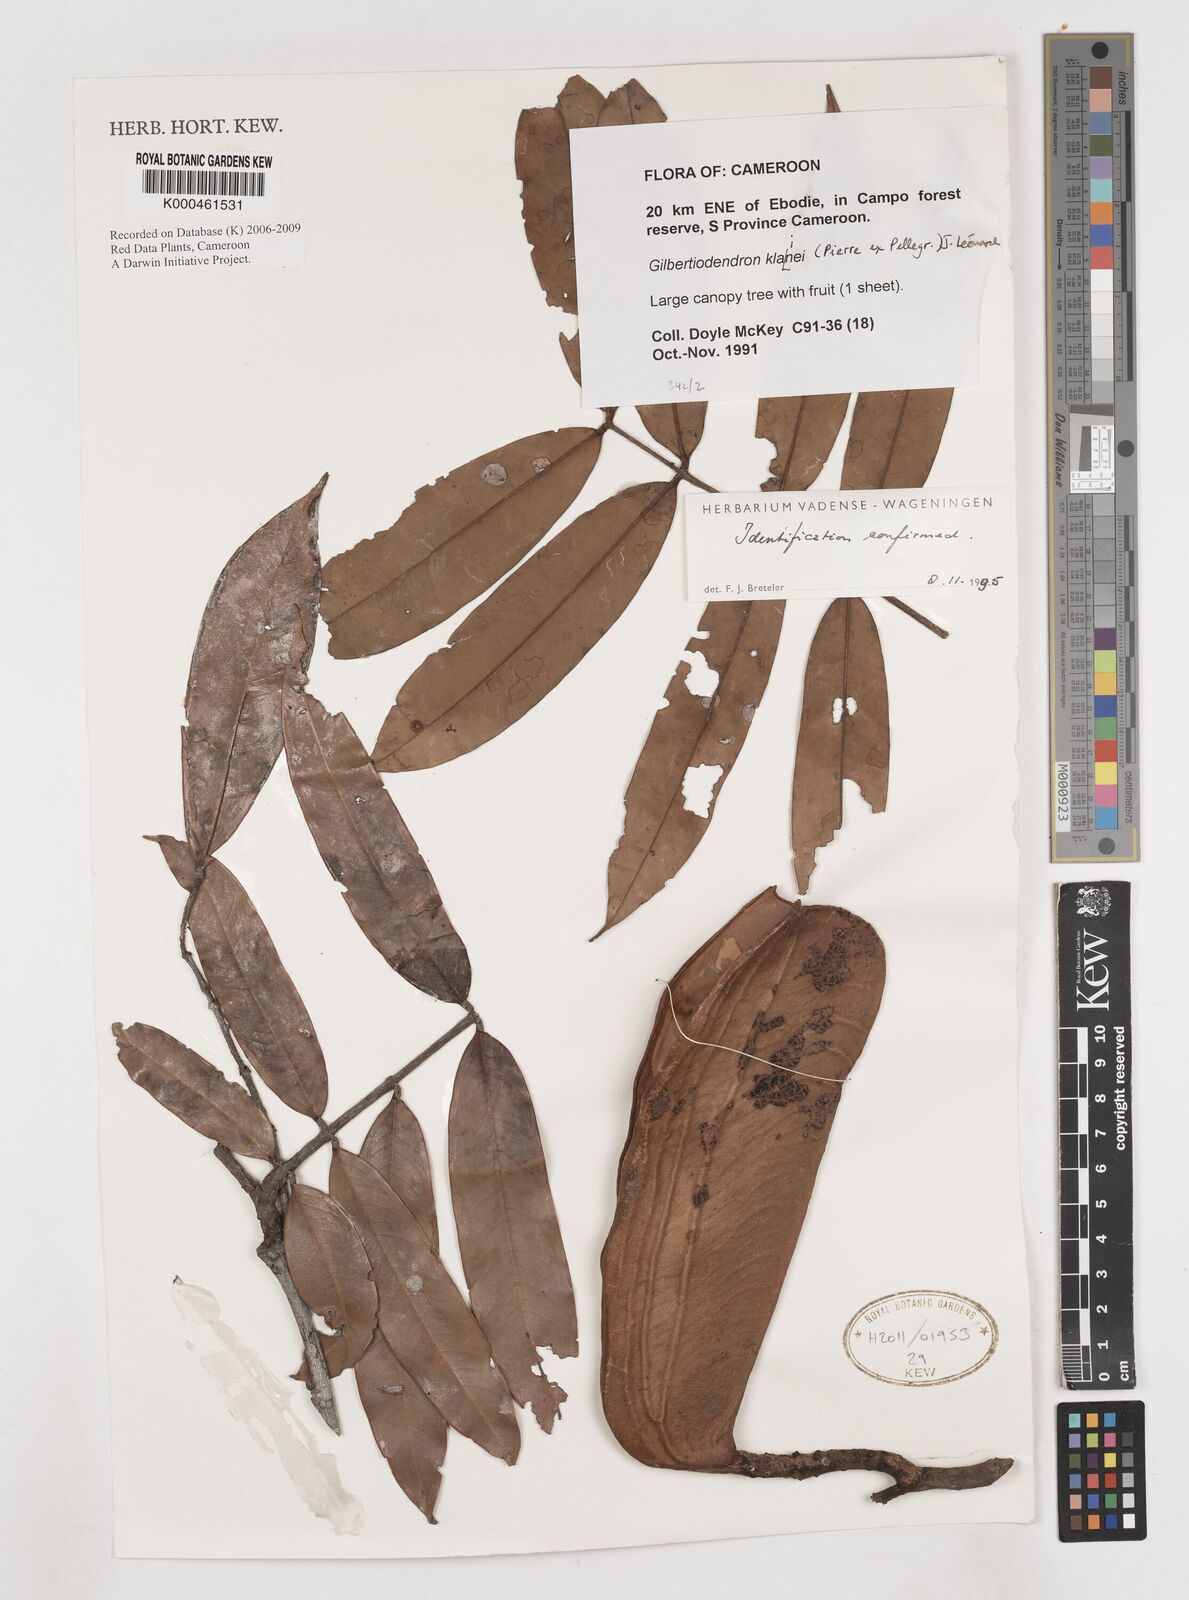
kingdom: Plantae
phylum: Tracheophyta
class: Magnoliopsida
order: Fabales
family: Fabaceae
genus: Gilbertiodendron
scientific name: Gilbertiodendron
